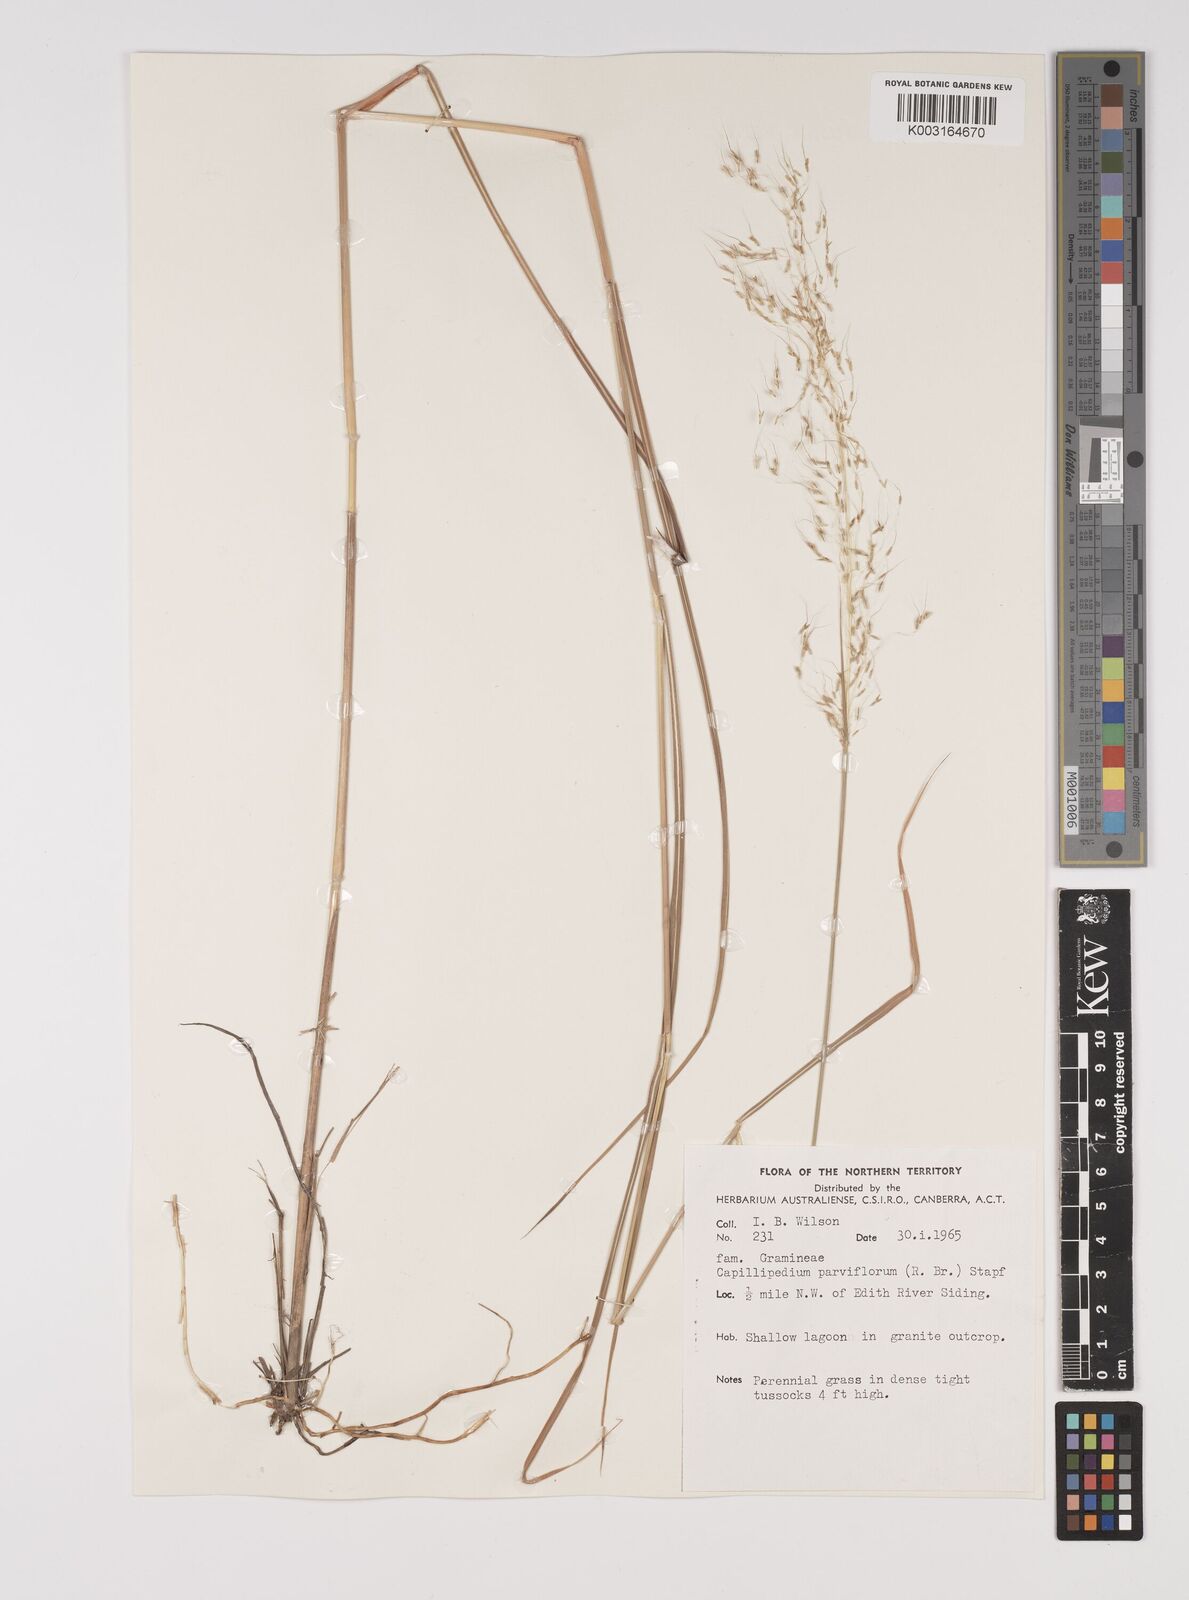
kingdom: Plantae
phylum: Tracheophyta
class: Liliopsida
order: Poales
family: Poaceae
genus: Capillipedium
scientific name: Capillipedium parviflorum
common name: Golden-beard
